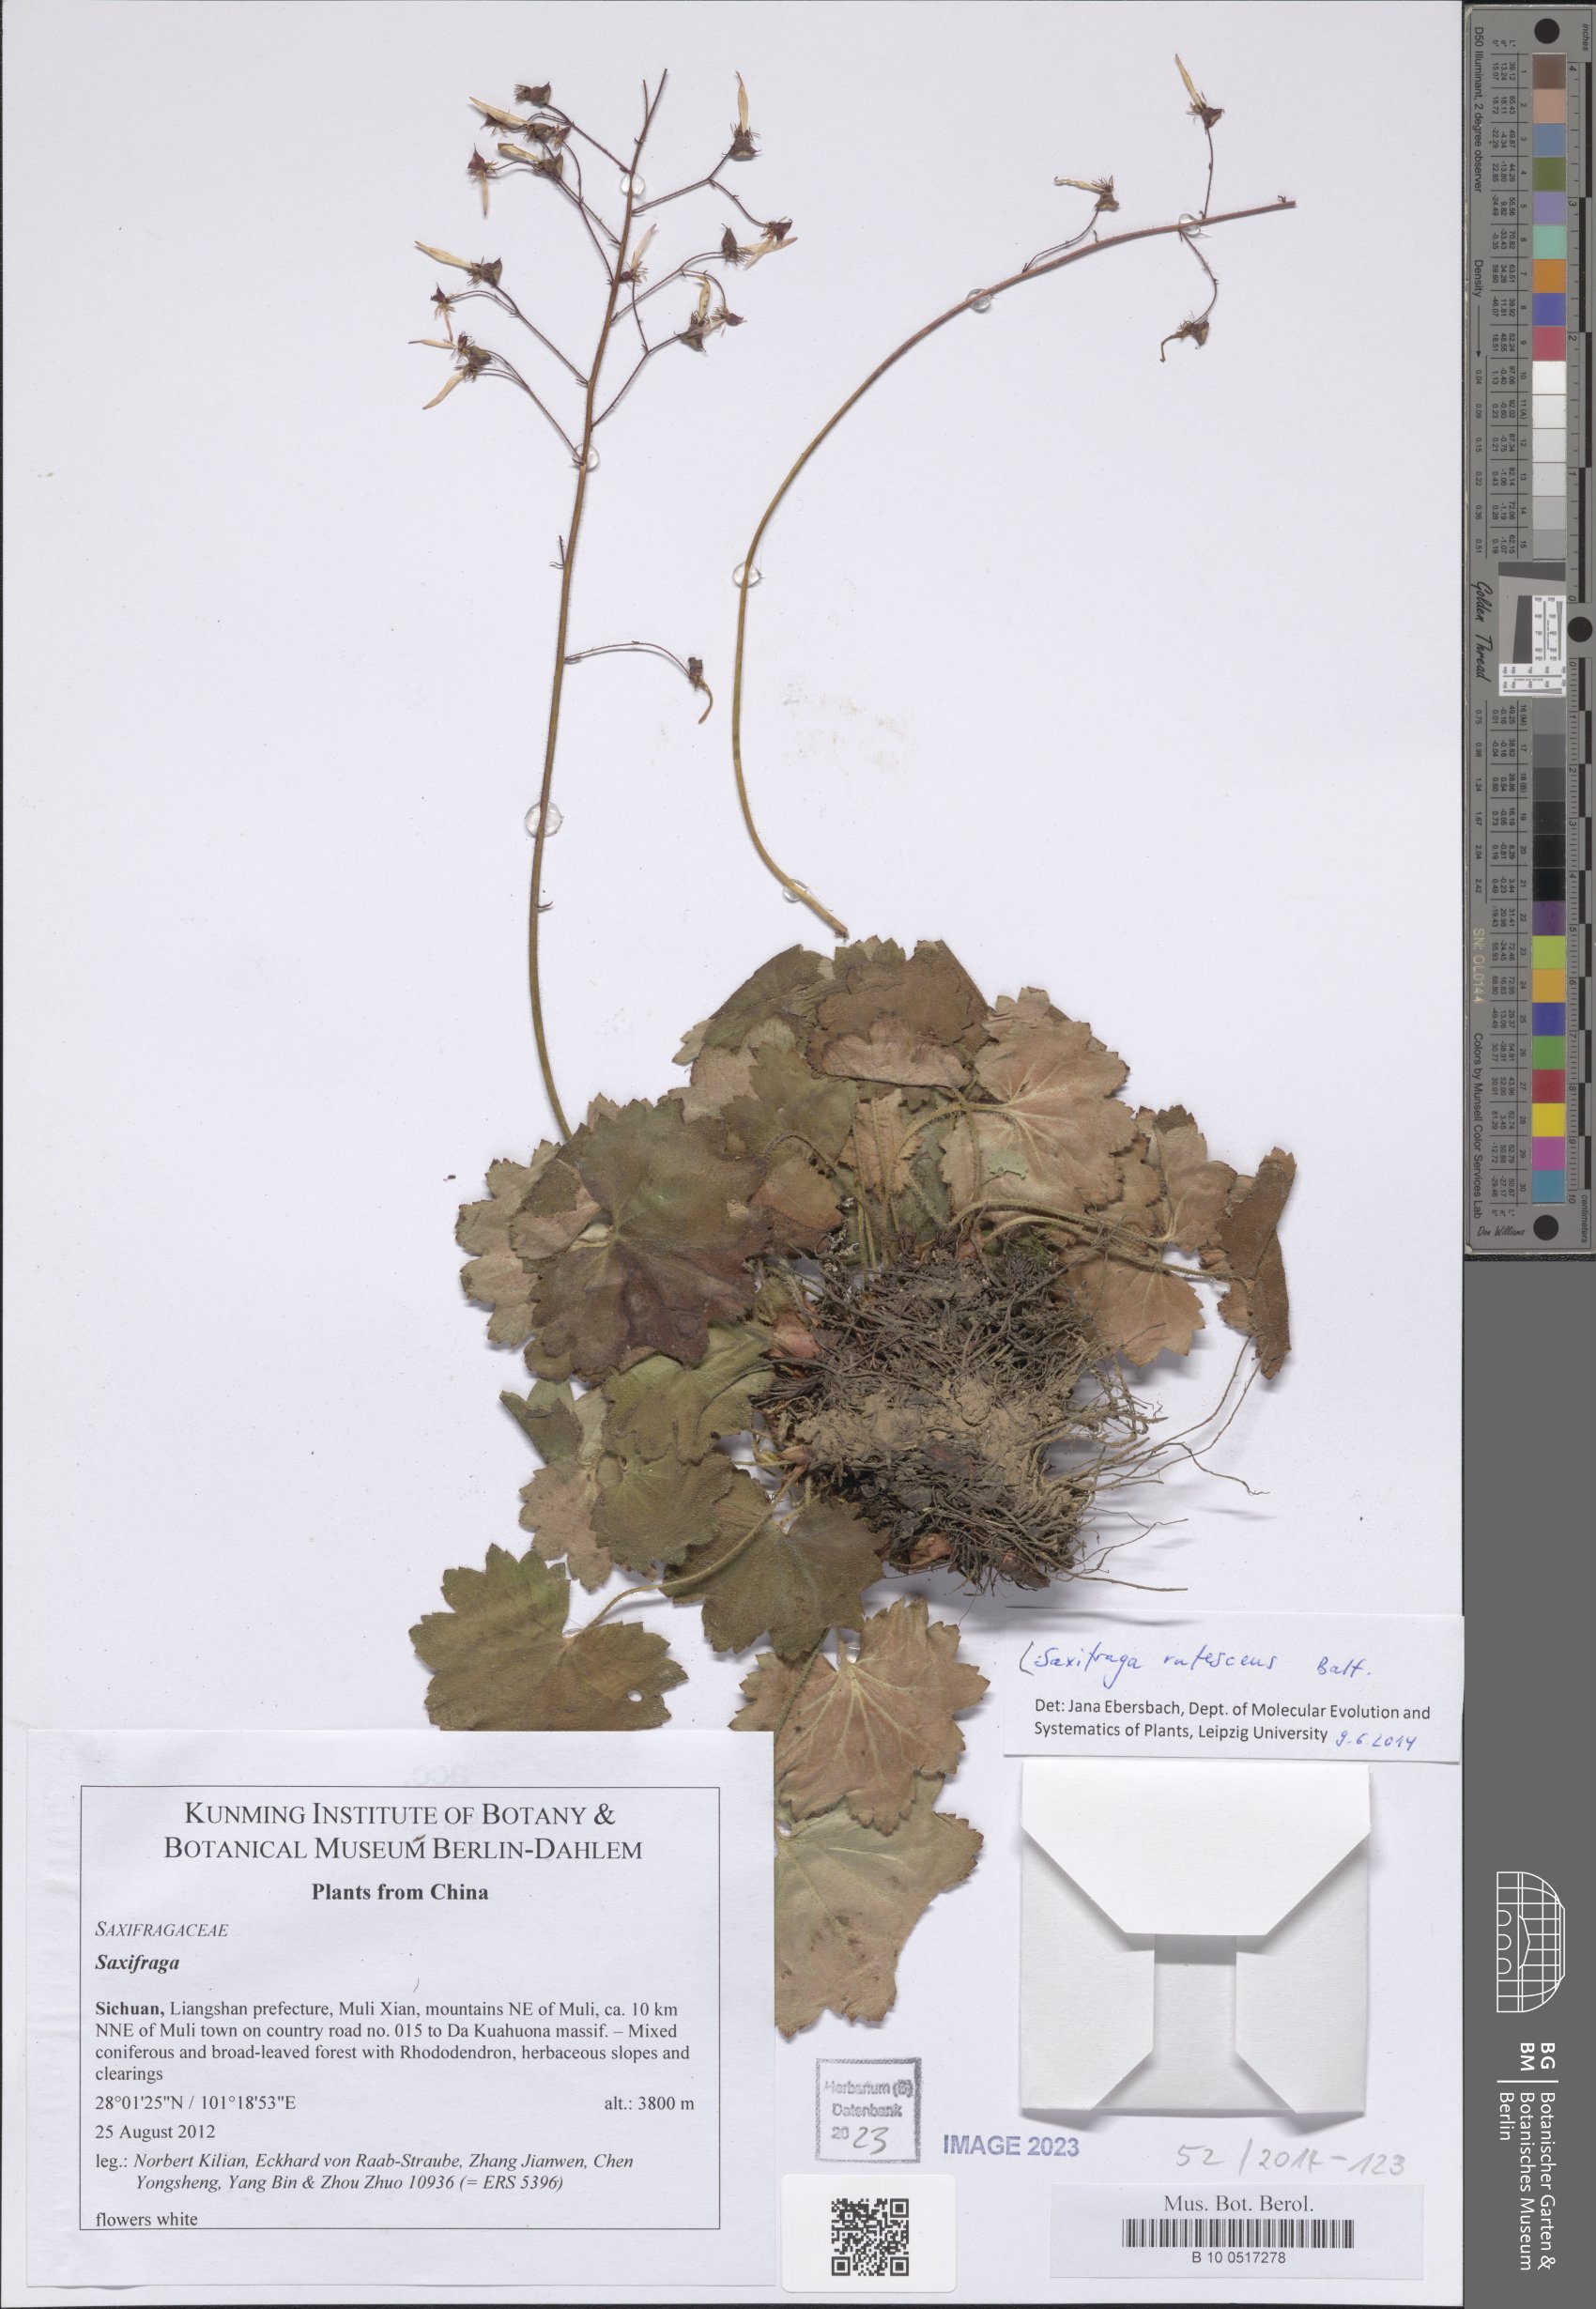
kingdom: Plantae
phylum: Tracheophyta
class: Magnoliopsida
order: Saxifragales
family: Saxifragaceae
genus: Saxifraga
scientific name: Saxifraga rufescens
